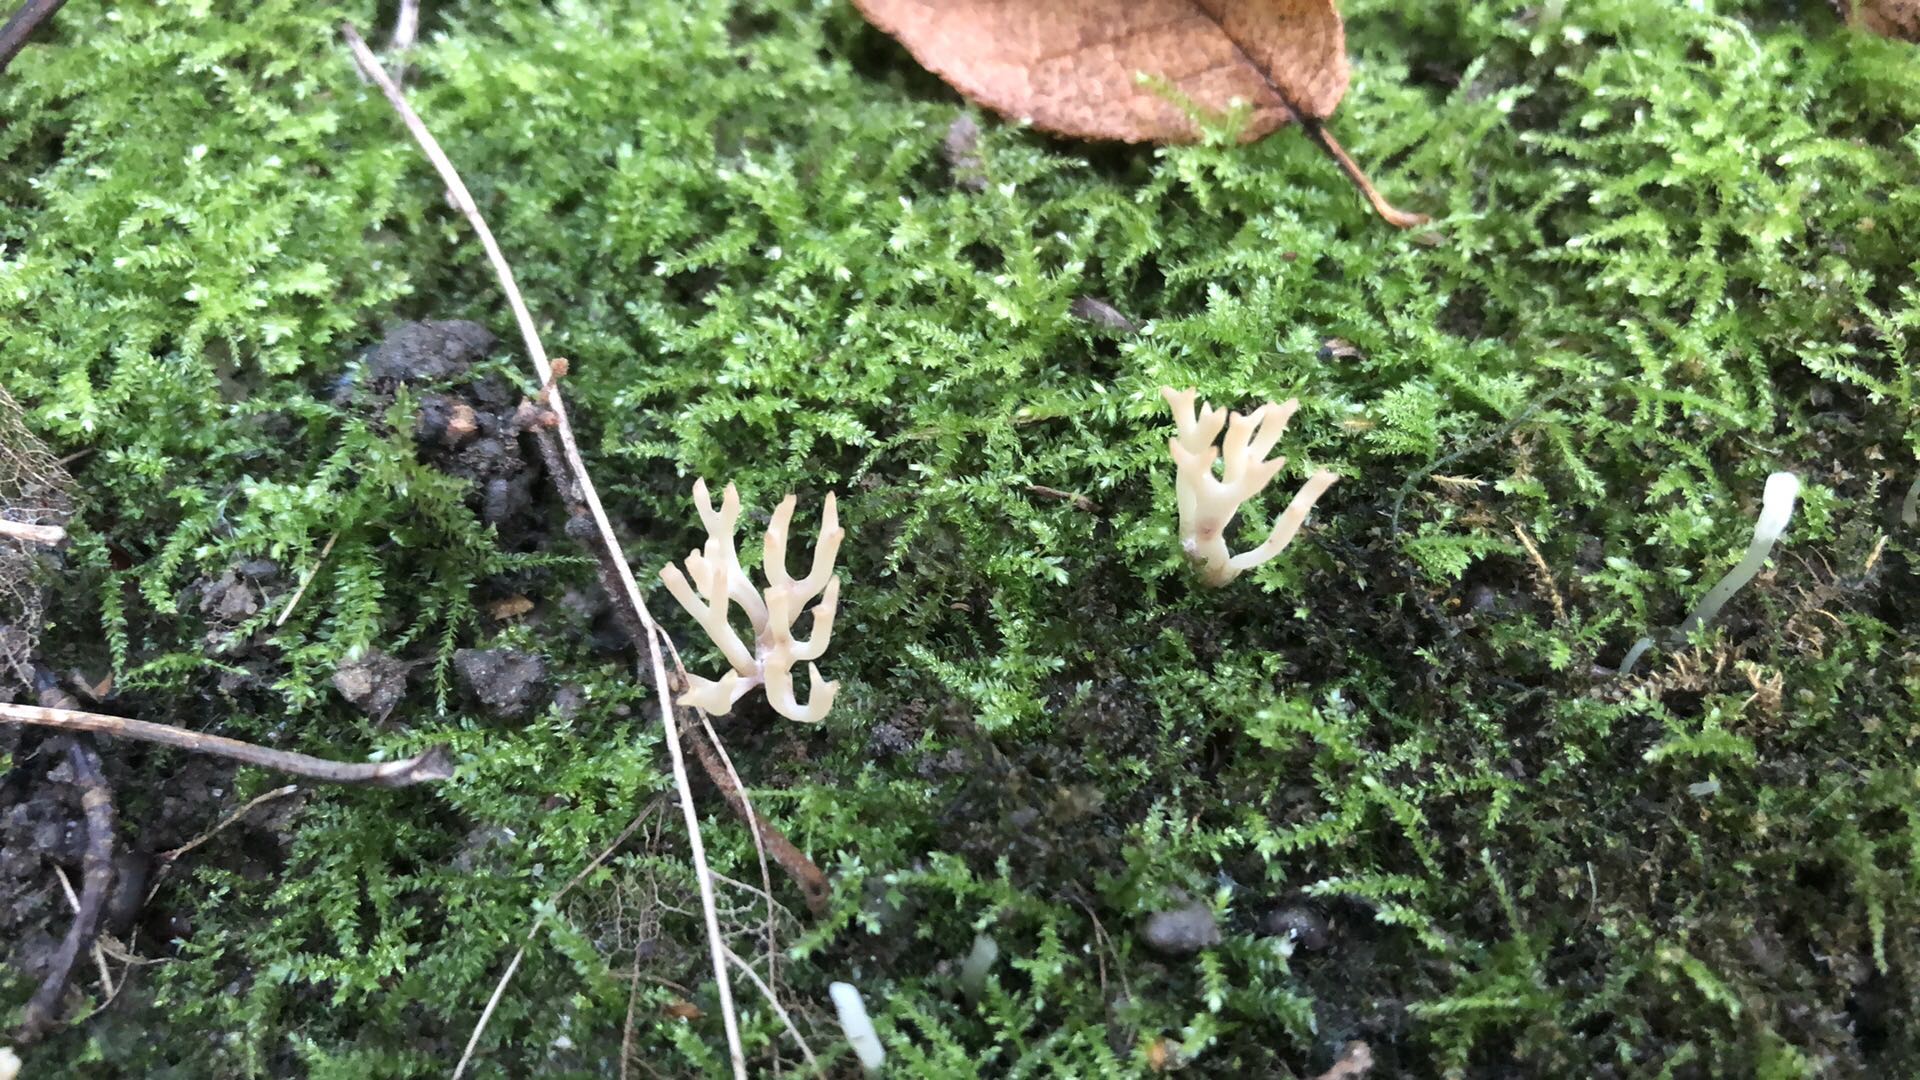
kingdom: Fungi
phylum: Basidiomycota
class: Agaricomycetes
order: Agaricales
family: Clavariaceae
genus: Ramariopsis
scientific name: Ramariopsis
